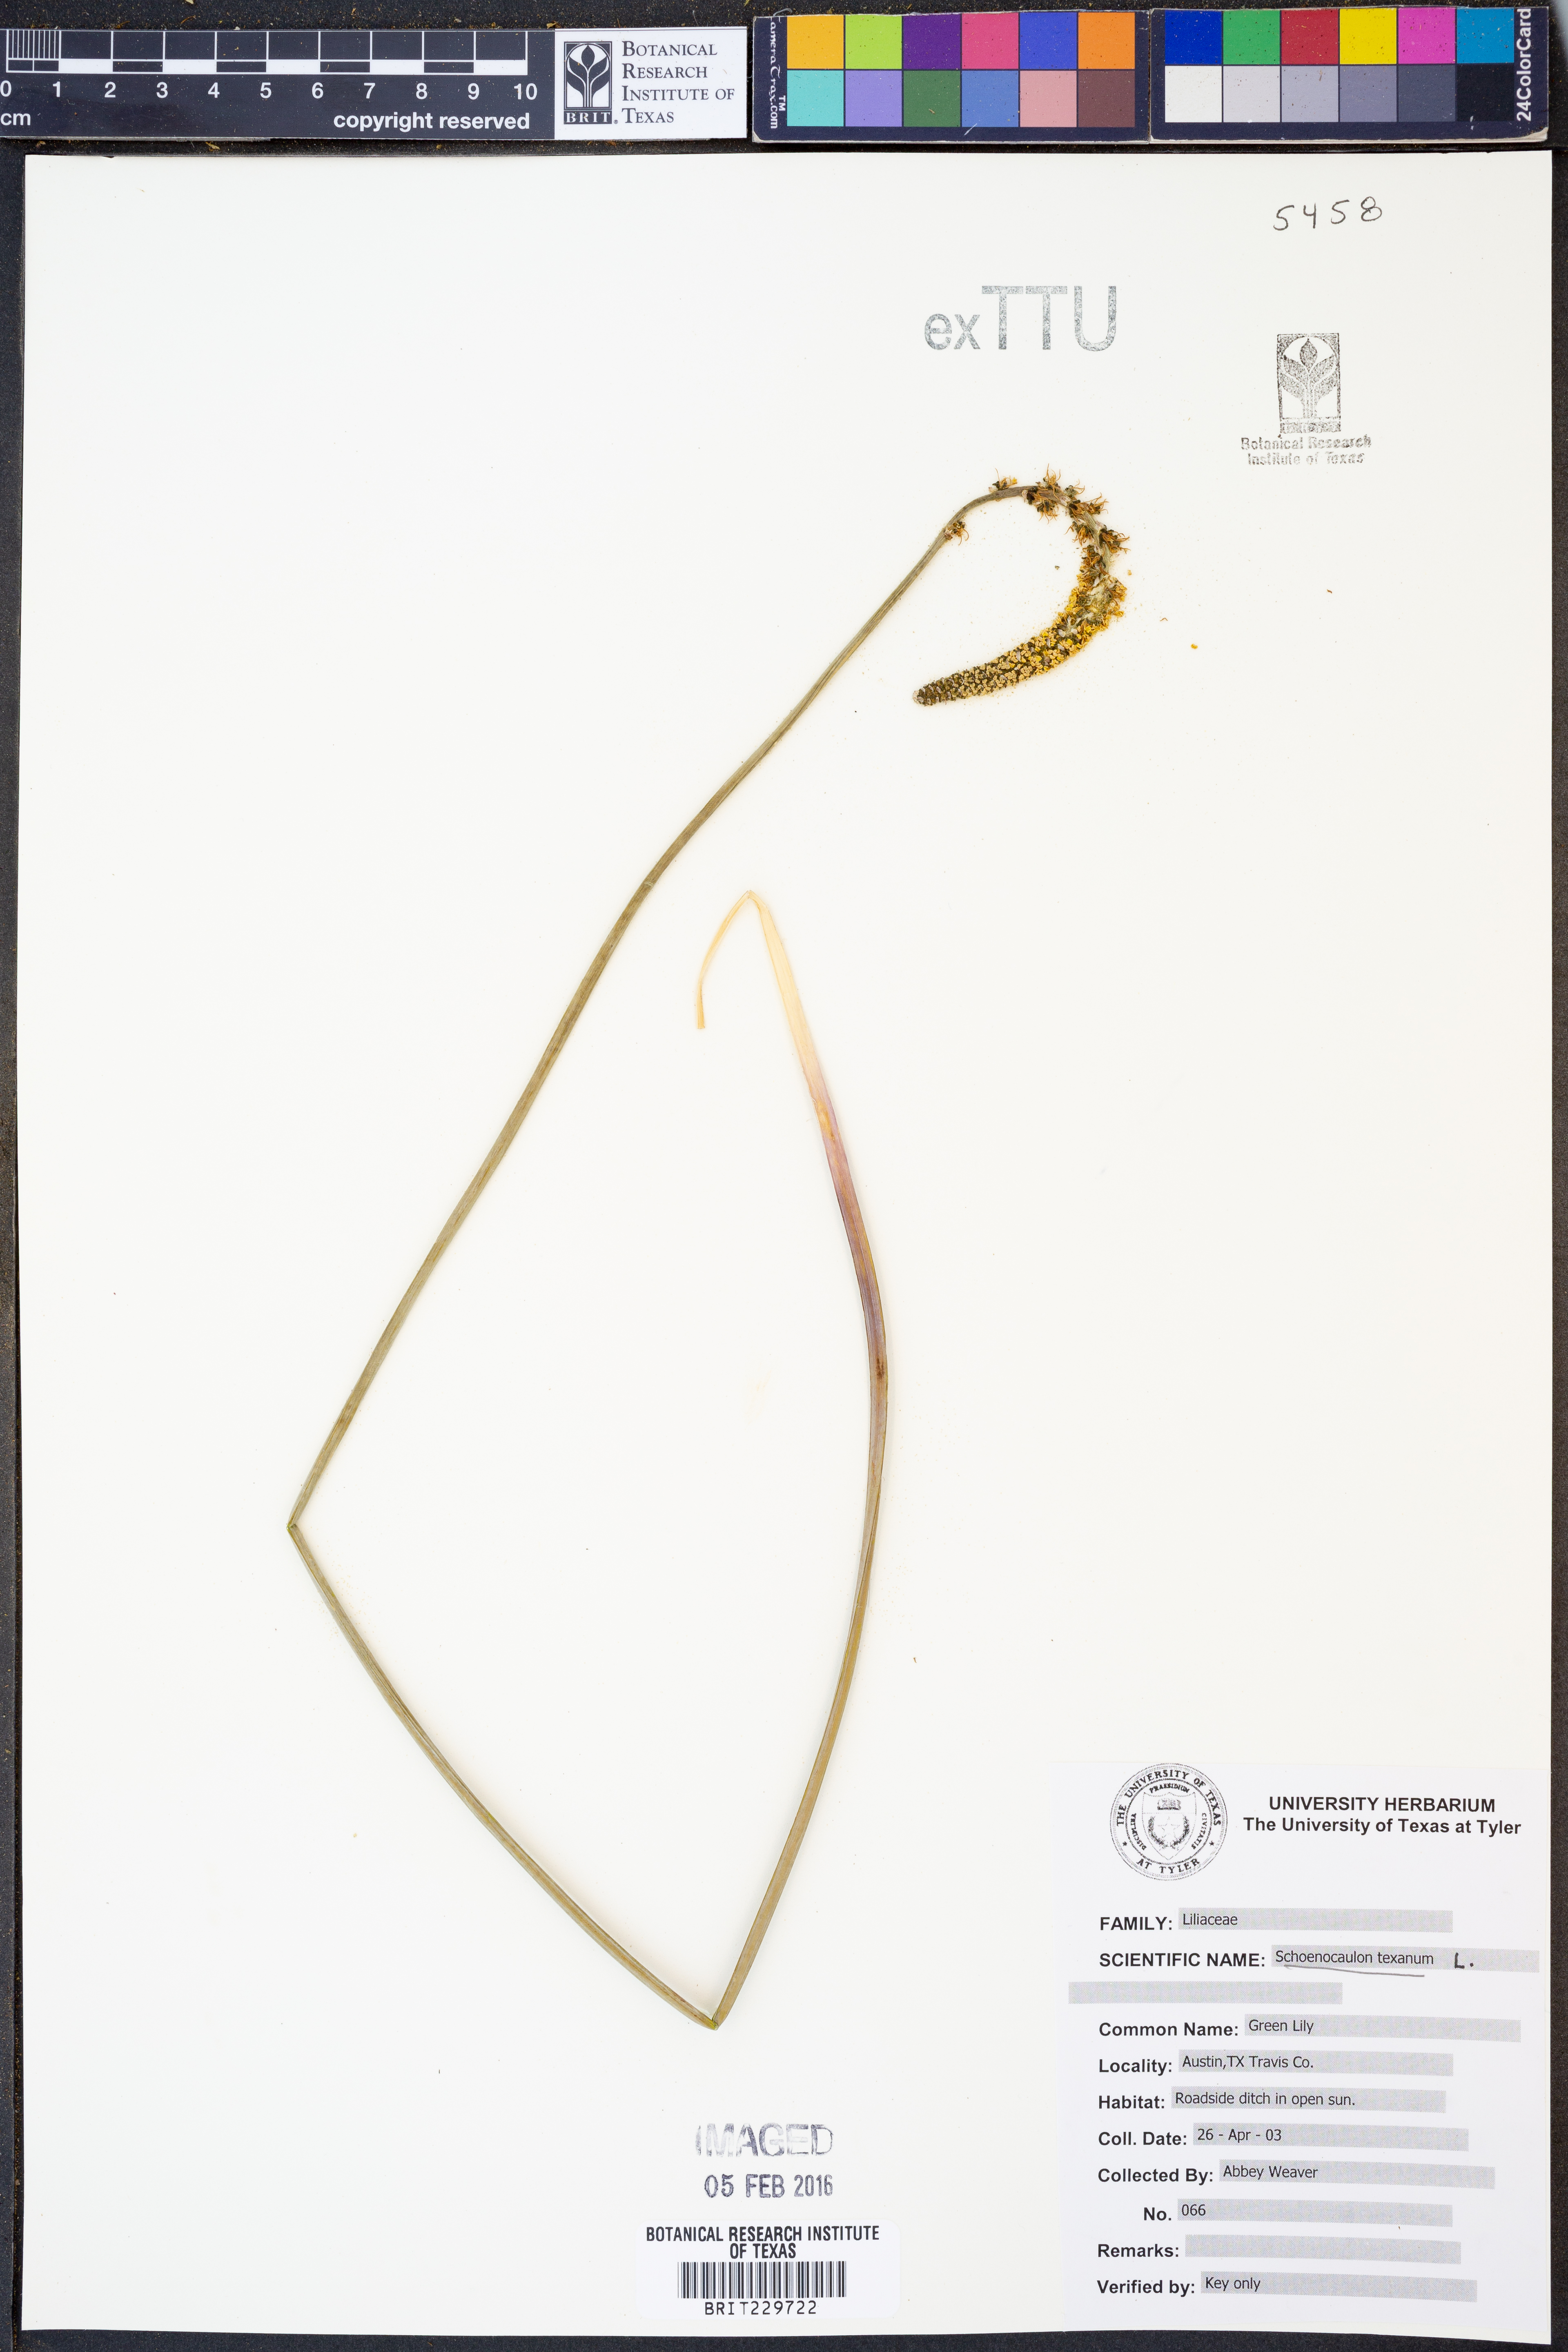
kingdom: Plantae
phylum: Tracheophyta
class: Liliopsida
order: Liliales
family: Melanthiaceae
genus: Schoenocaulon
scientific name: Schoenocaulon texanum
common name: Texas feather-shank
